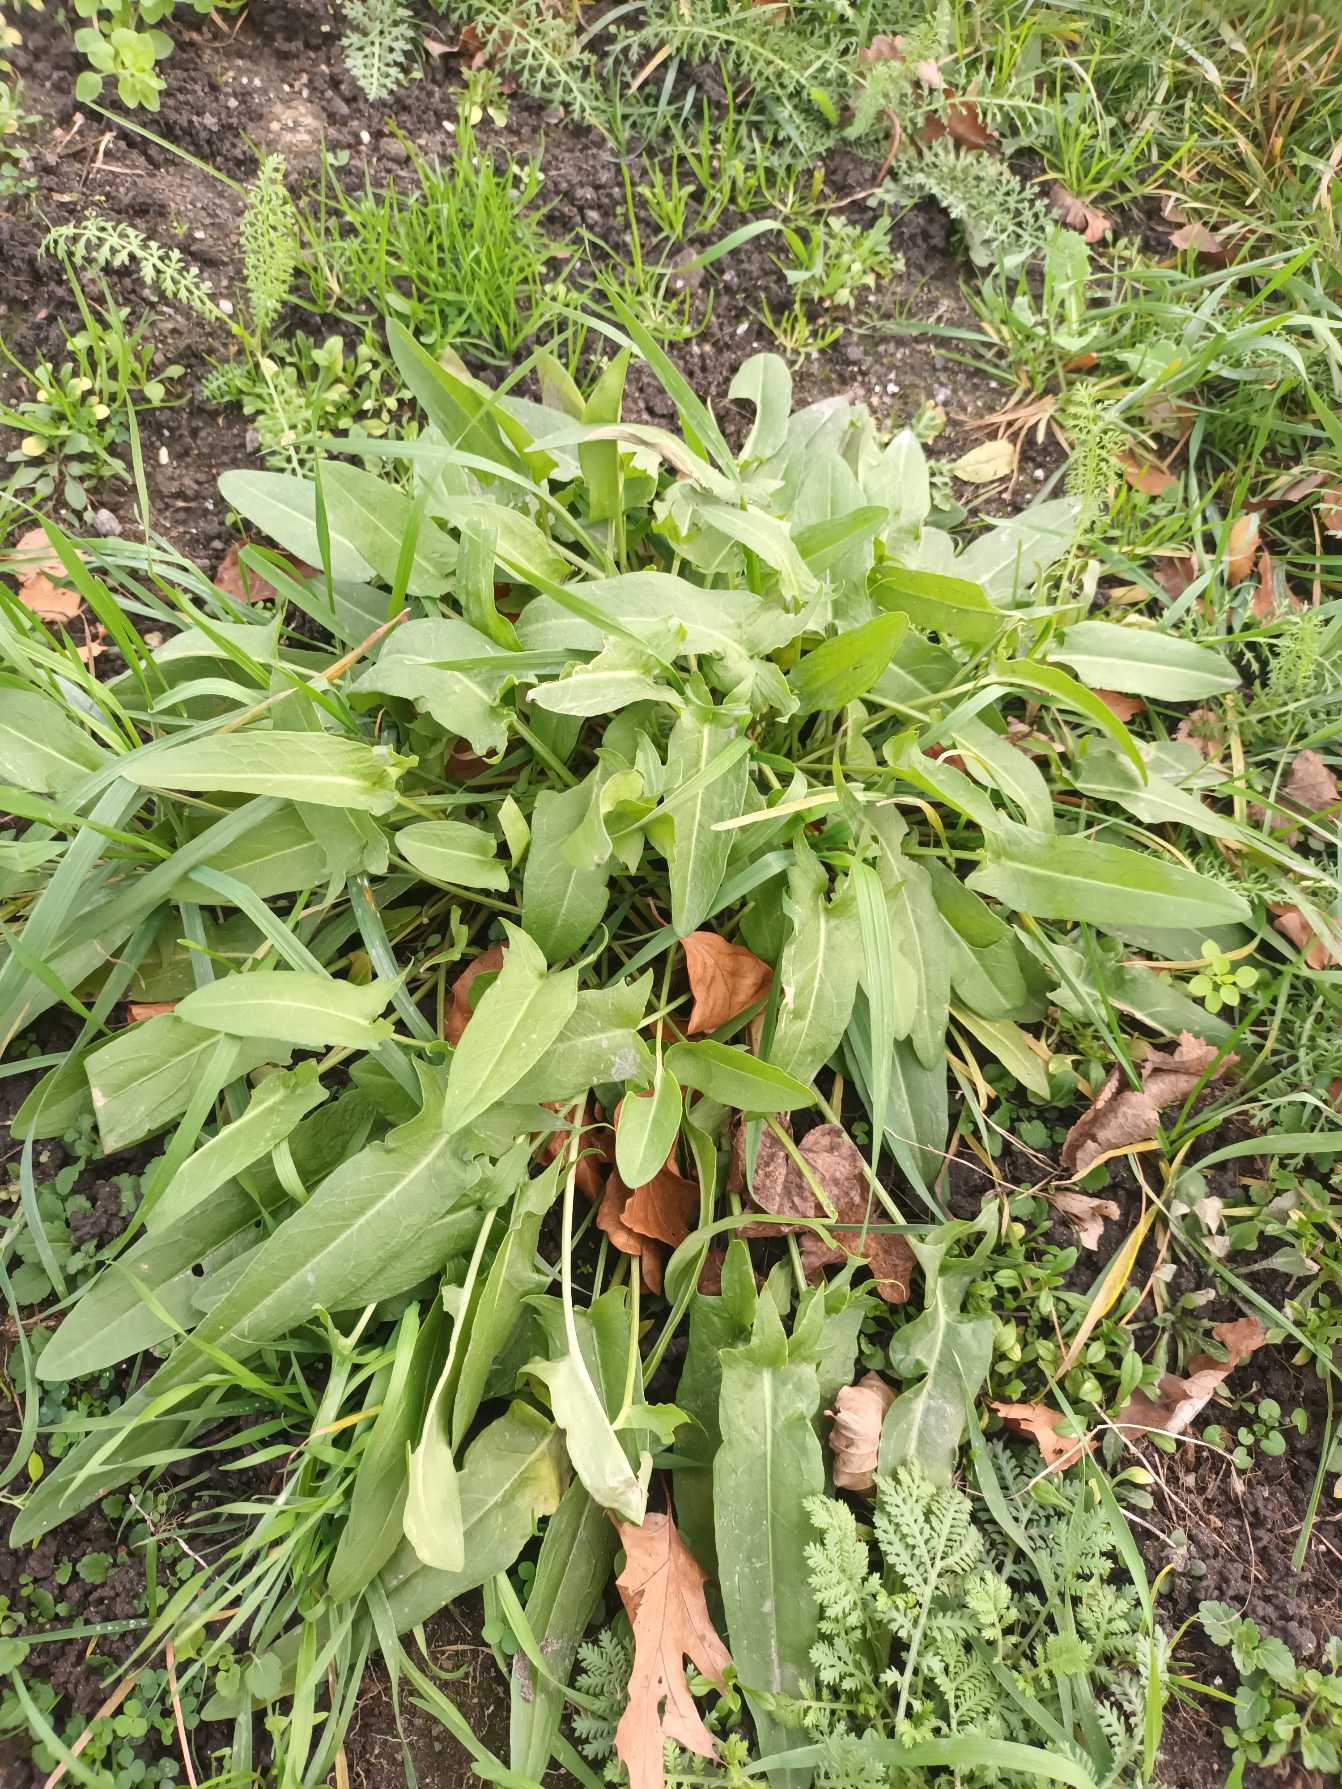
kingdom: Plantae
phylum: Tracheophyta
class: Magnoliopsida
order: Caryophyllales
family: Polygonaceae
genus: Rumex
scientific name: Rumex thyrsiflorus
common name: Dusk-syre
